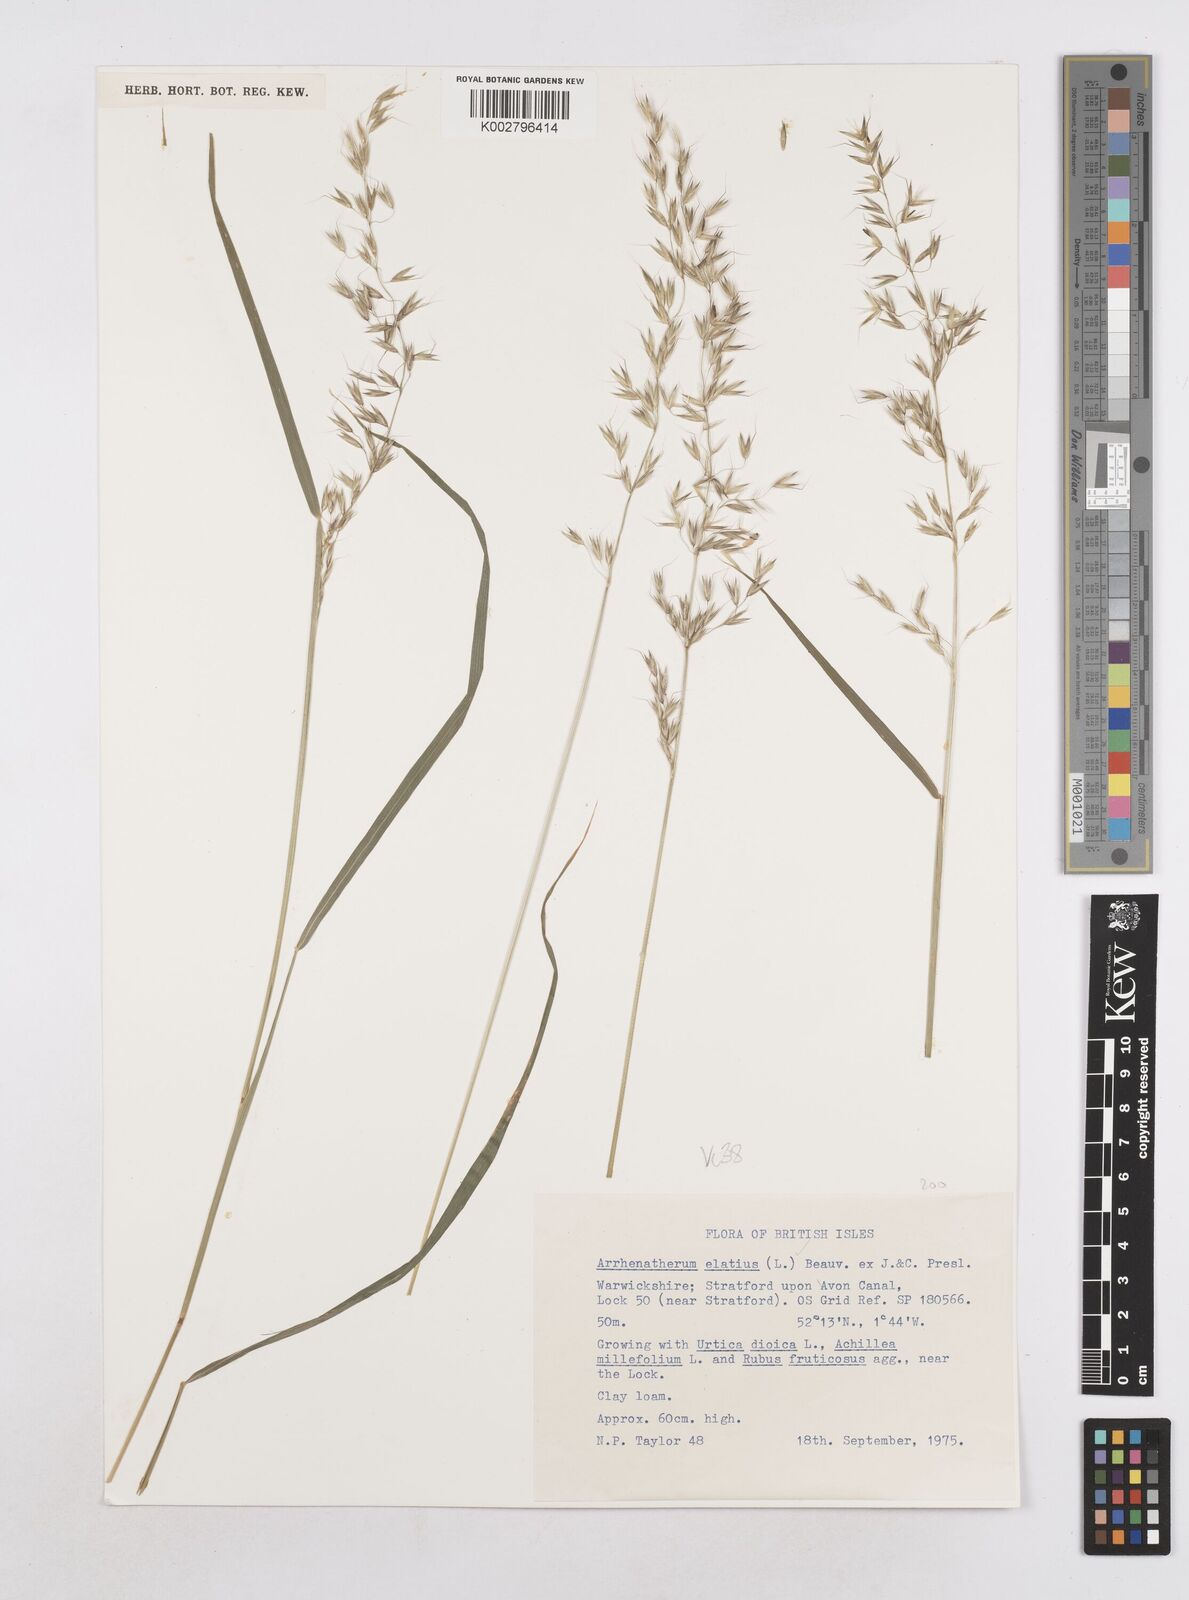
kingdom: Plantae
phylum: Tracheophyta
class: Liliopsida
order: Poales
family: Poaceae
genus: Arrhenatherum
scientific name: Arrhenatherum elatius
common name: Tall oatgrass
